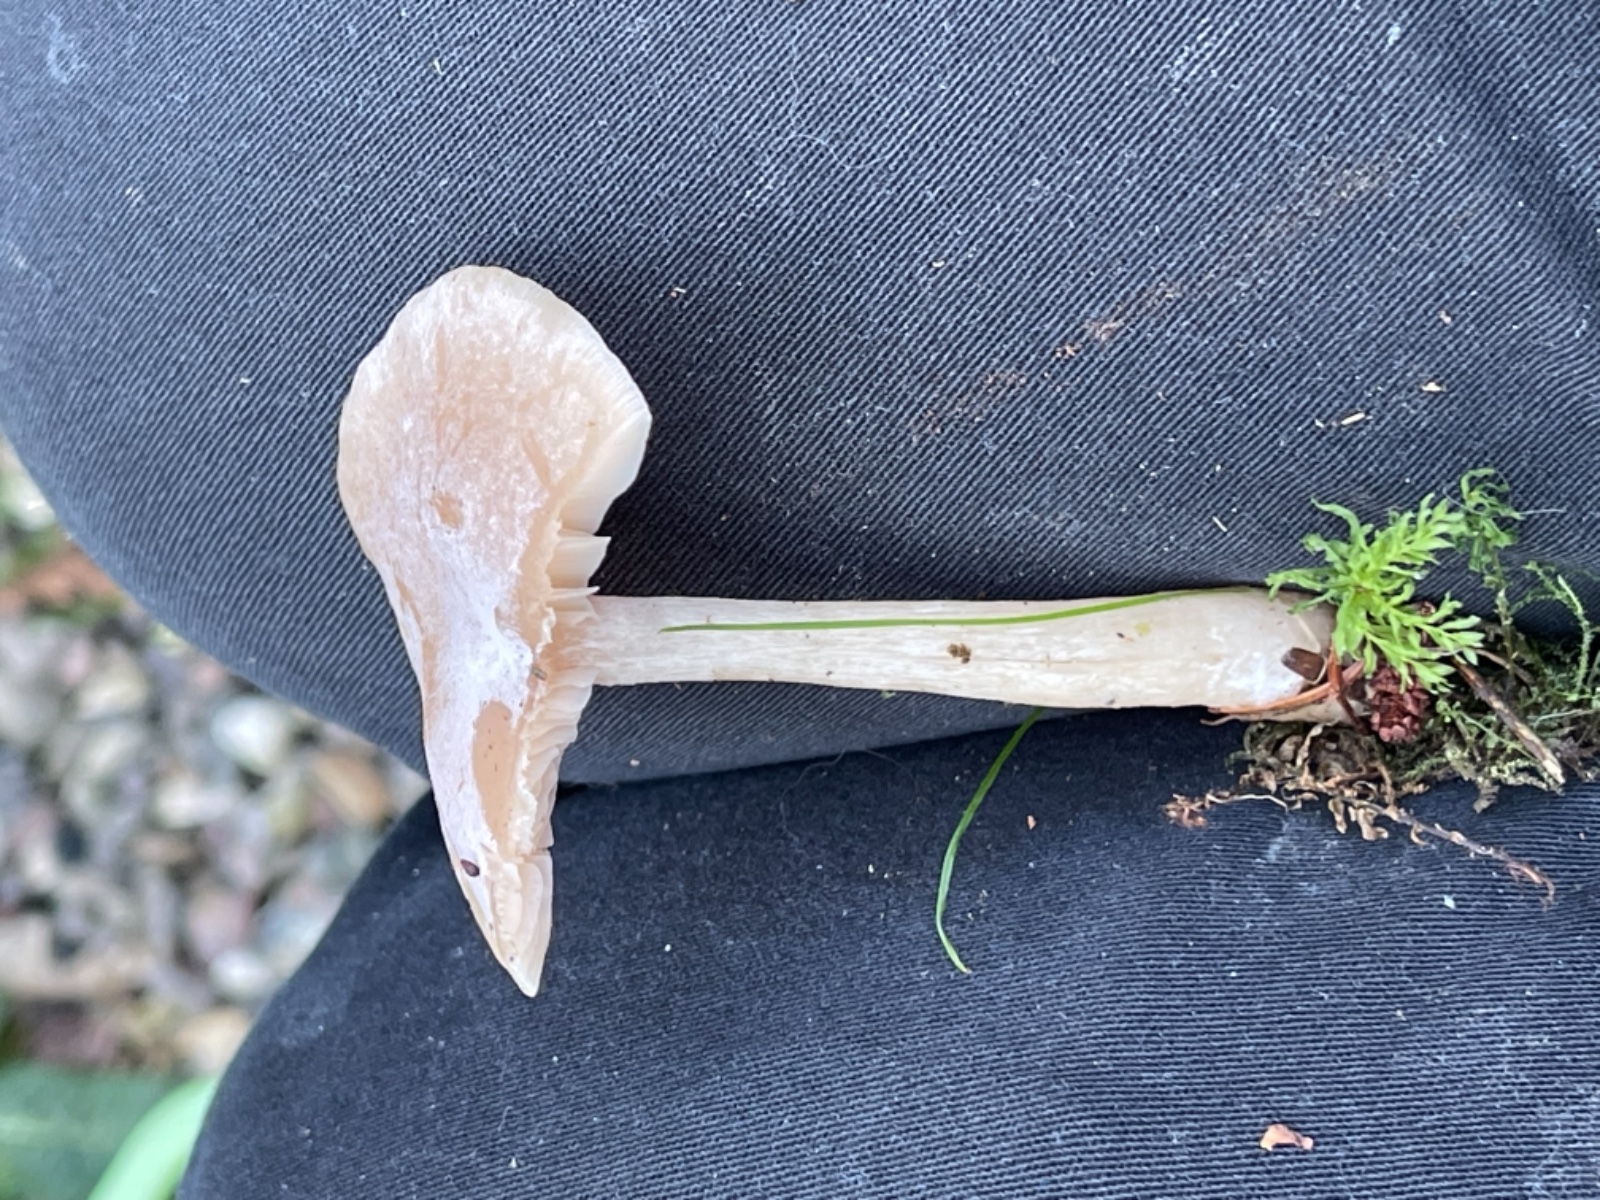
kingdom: Fungi
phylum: Basidiomycota
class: Agaricomycetes
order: Agaricales
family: Tricholomataceae
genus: Clitocybe
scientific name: Clitocybe fragrans
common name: vellugtende tragthat
